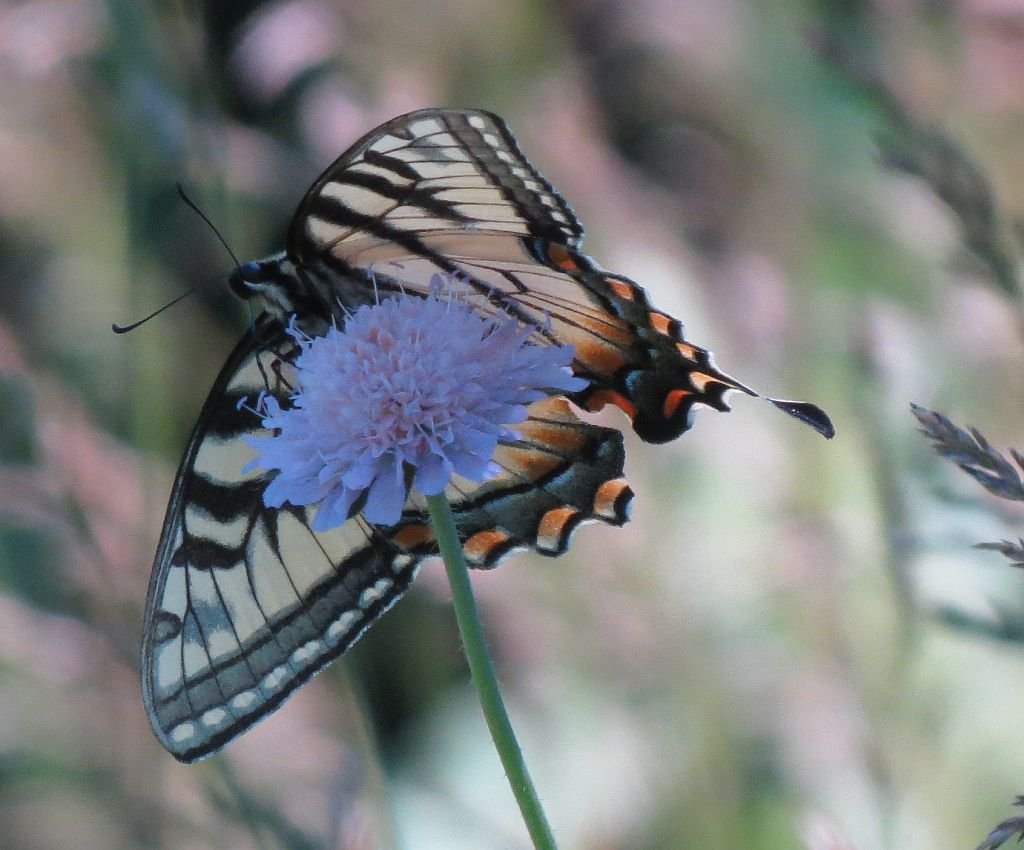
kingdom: Animalia
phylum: Arthropoda
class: Insecta
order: Lepidoptera
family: Papilionidae
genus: Pterourus
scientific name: Pterourus canadensis
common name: Canadian Tiger Swallowtail
